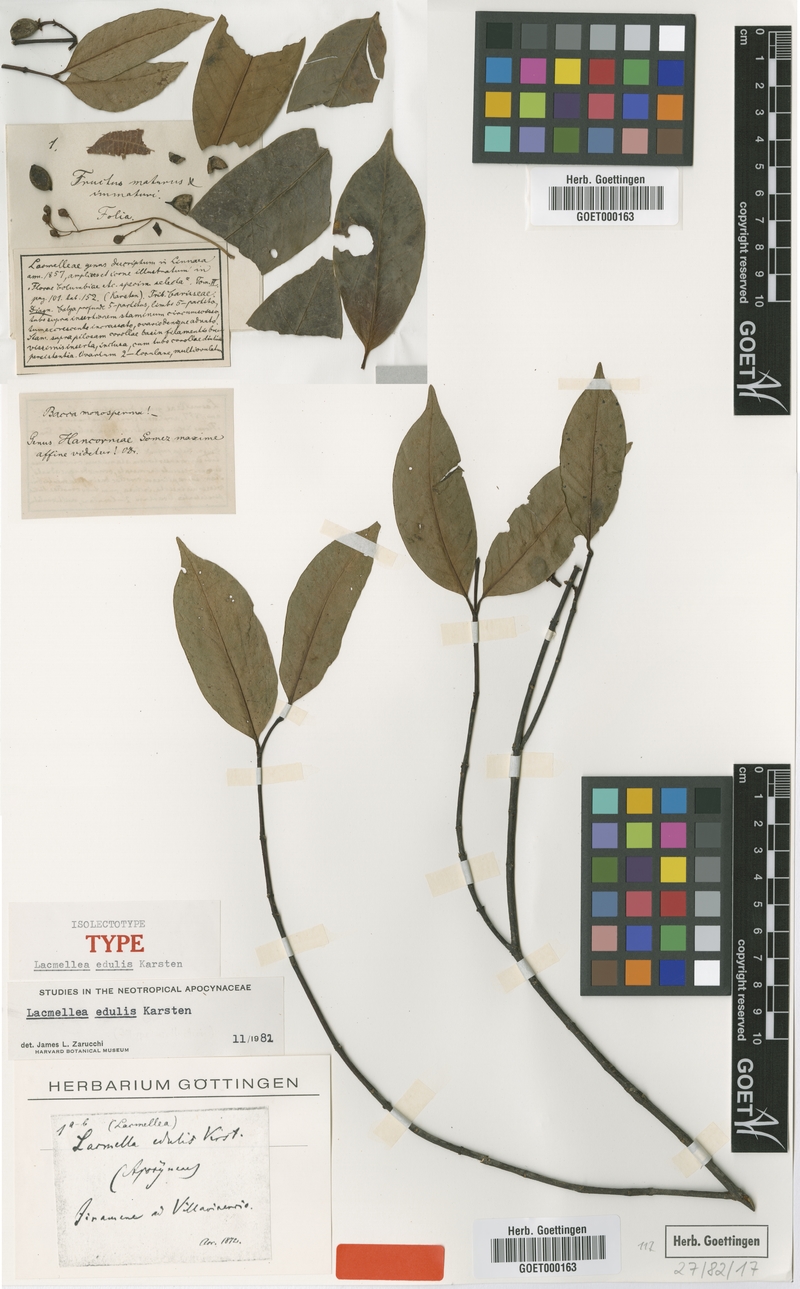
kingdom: Plantae
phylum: Tracheophyta
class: Magnoliopsida
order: Gentianales
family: Apocynaceae
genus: Lacmellea
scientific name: Lacmellea edulis
